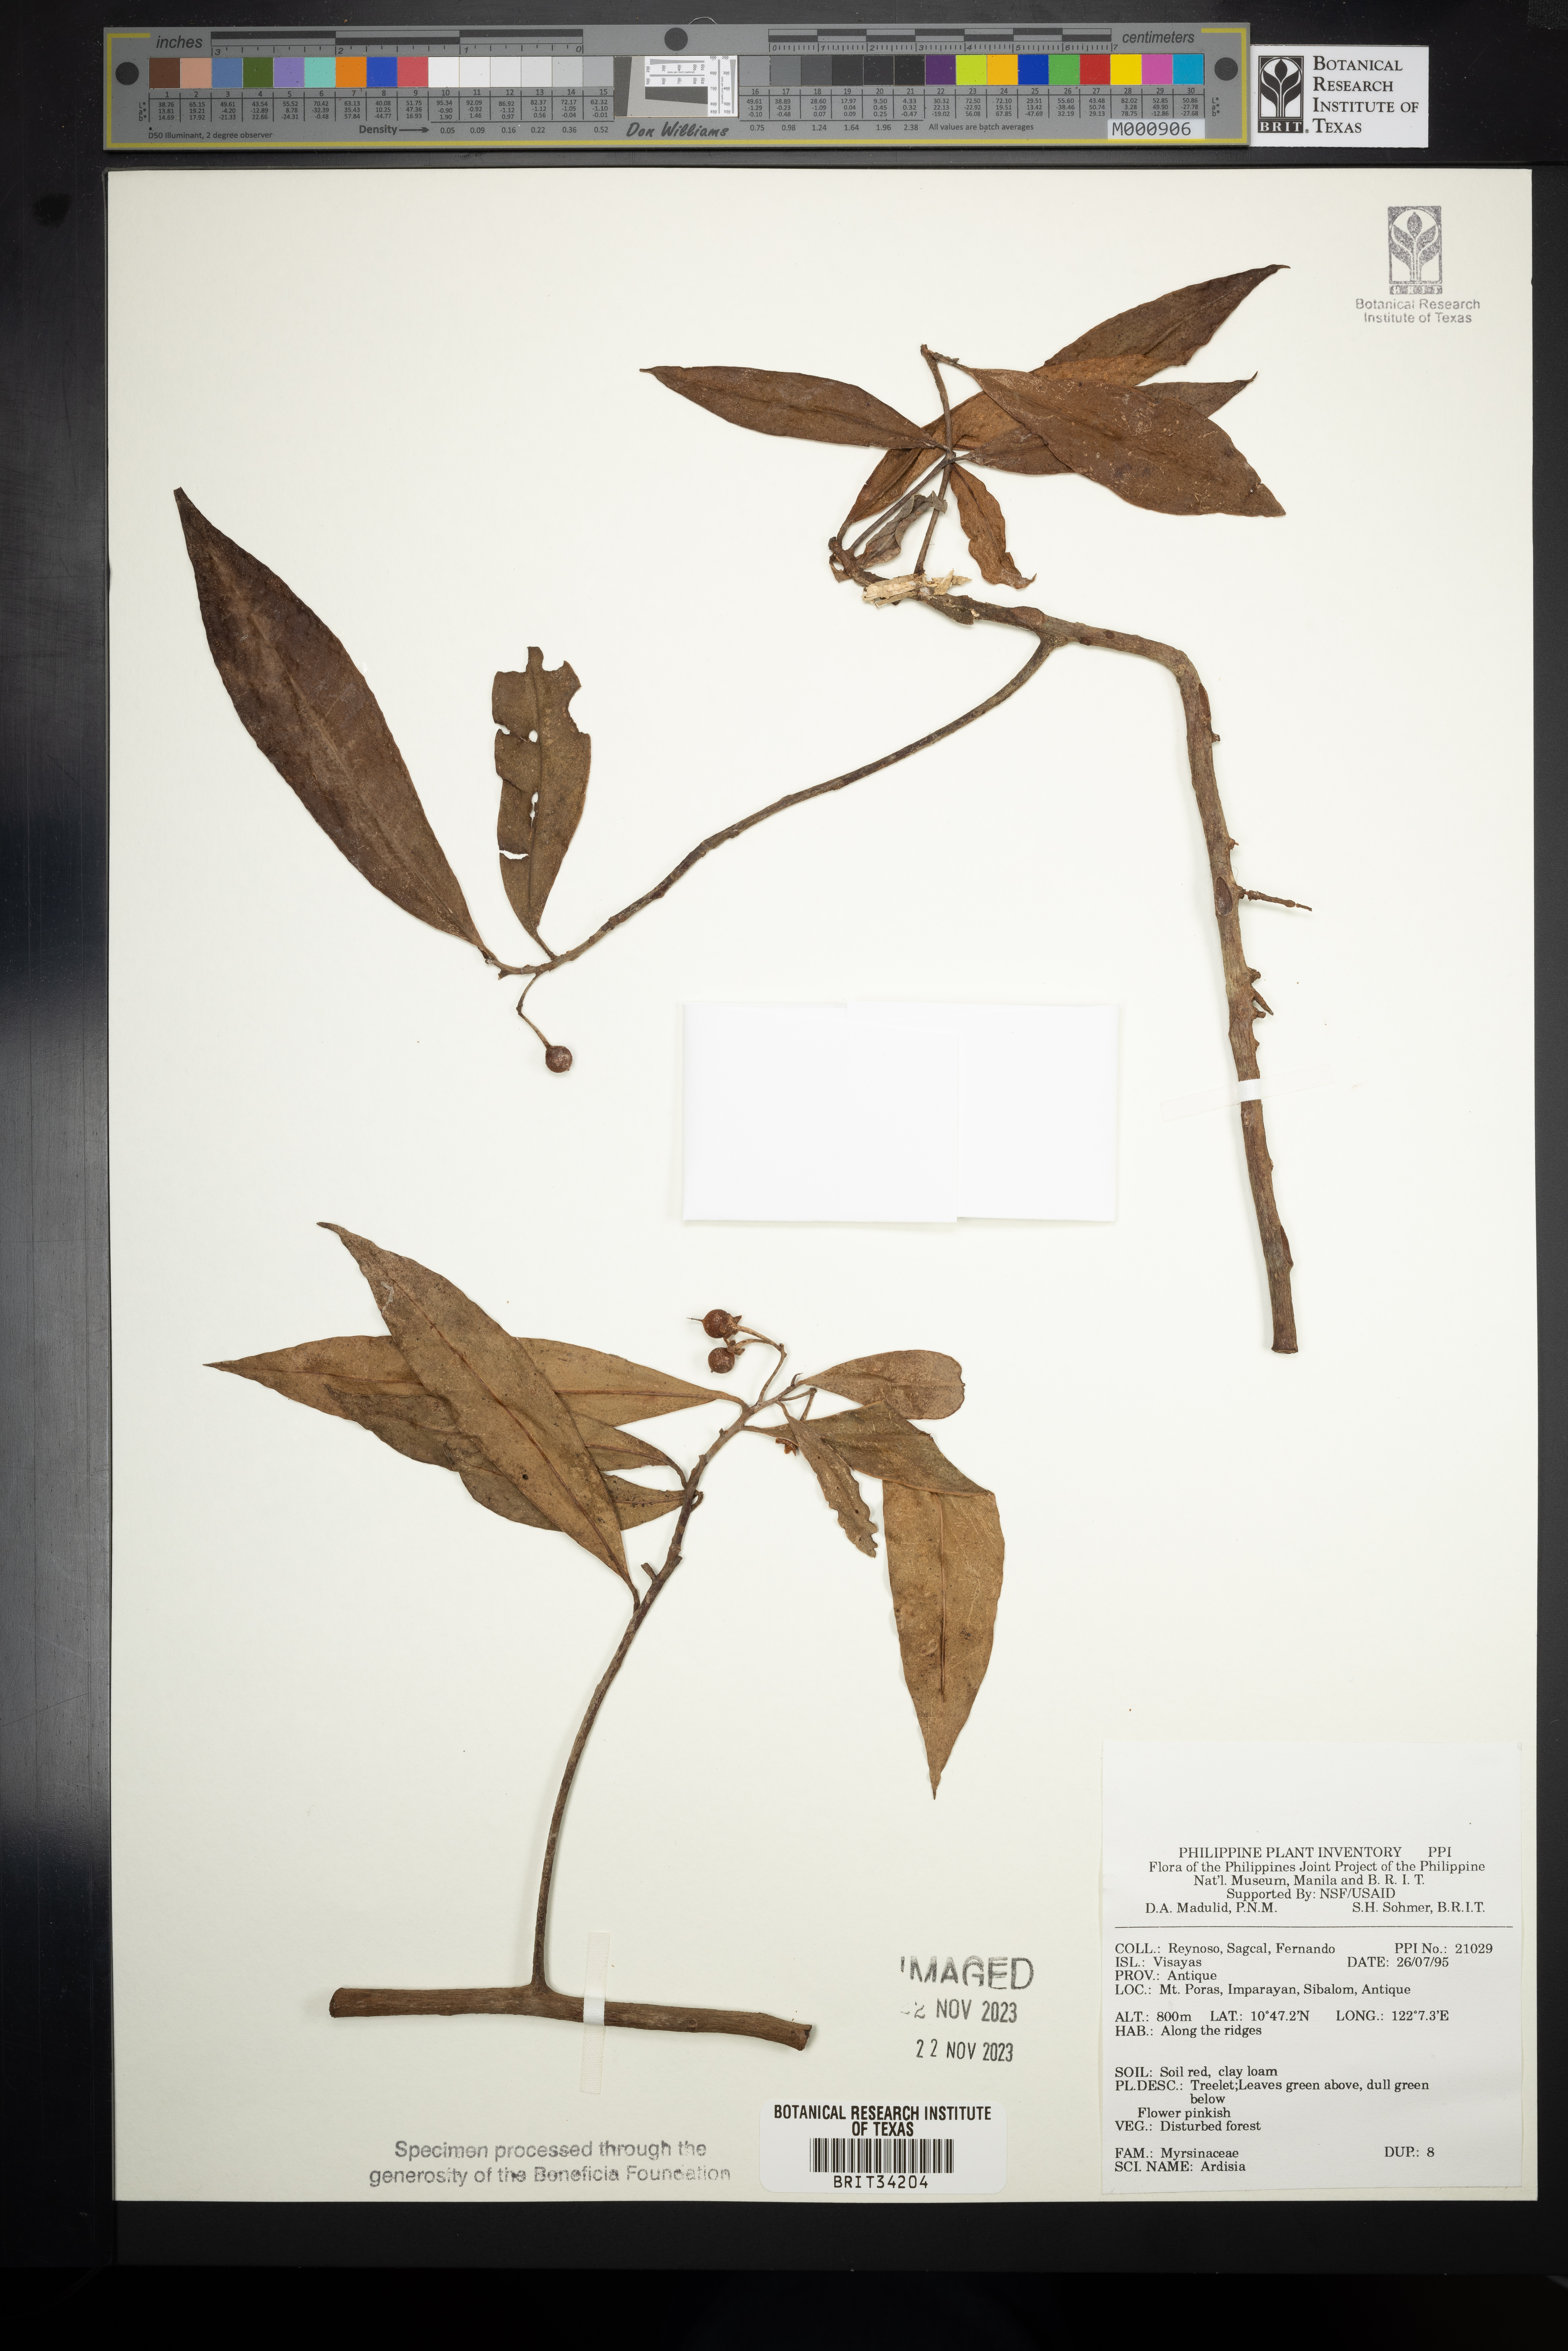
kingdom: Plantae
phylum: Tracheophyta
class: Magnoliopsida
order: Ericales
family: Primulaceae
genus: Ardisia
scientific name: Ardisia
